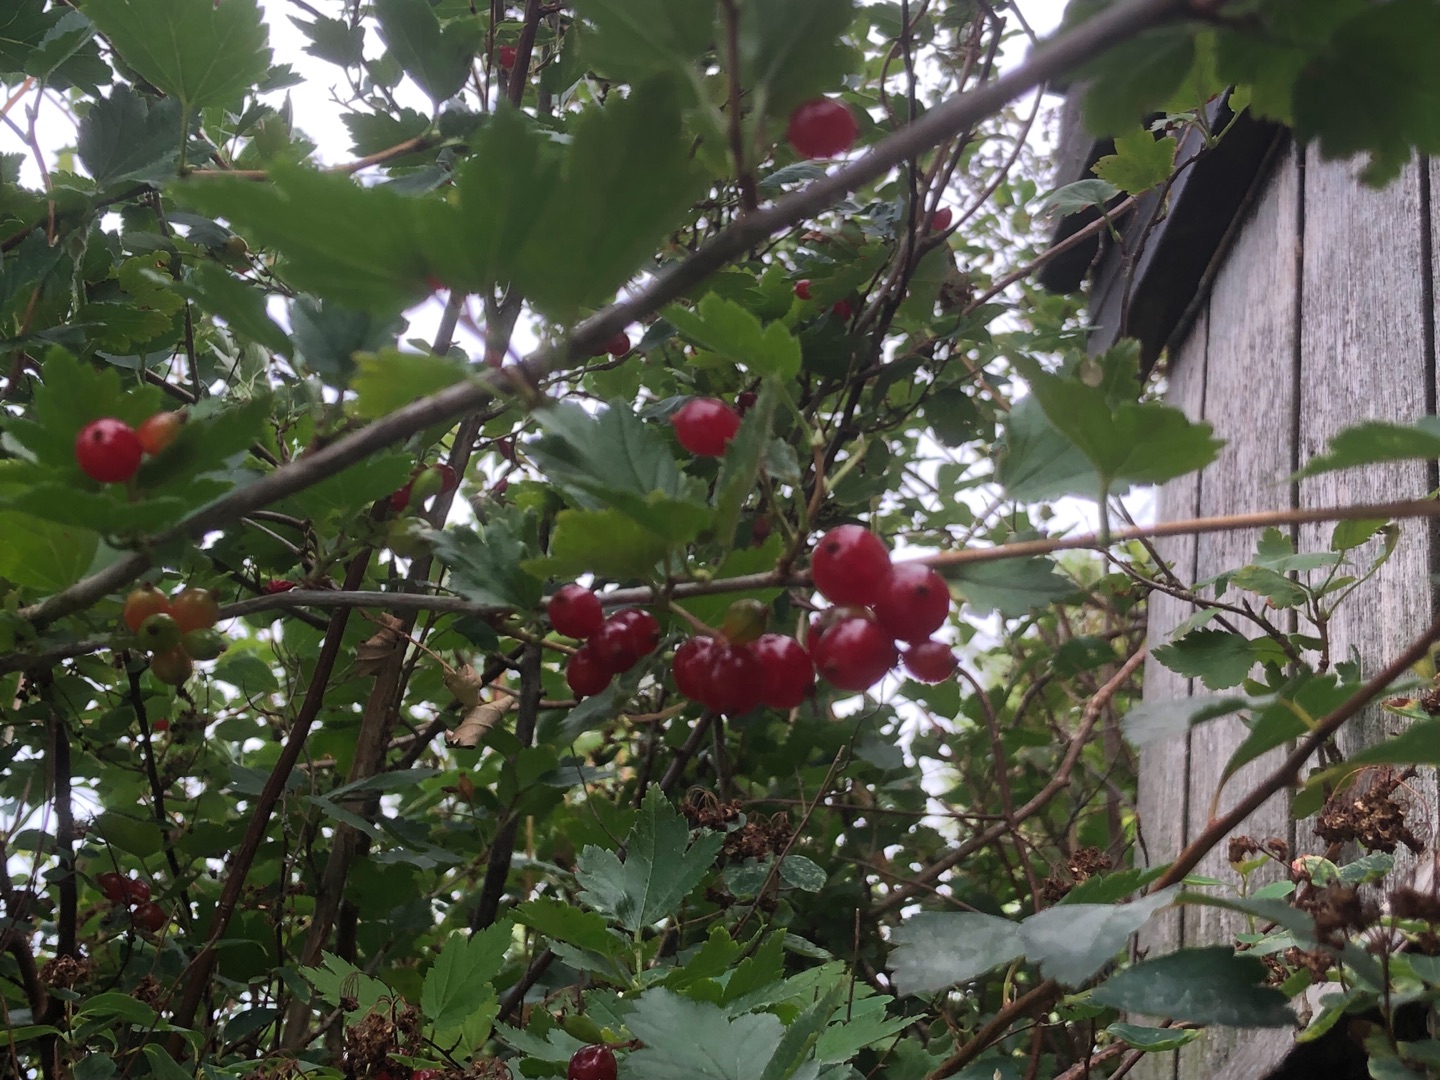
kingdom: Plantae
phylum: Tracheophyta
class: Magnoliopsida
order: Saxifragales
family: Grossulariaceae
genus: Ribes
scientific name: Ribes alpinum
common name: Fjeld-ribs
